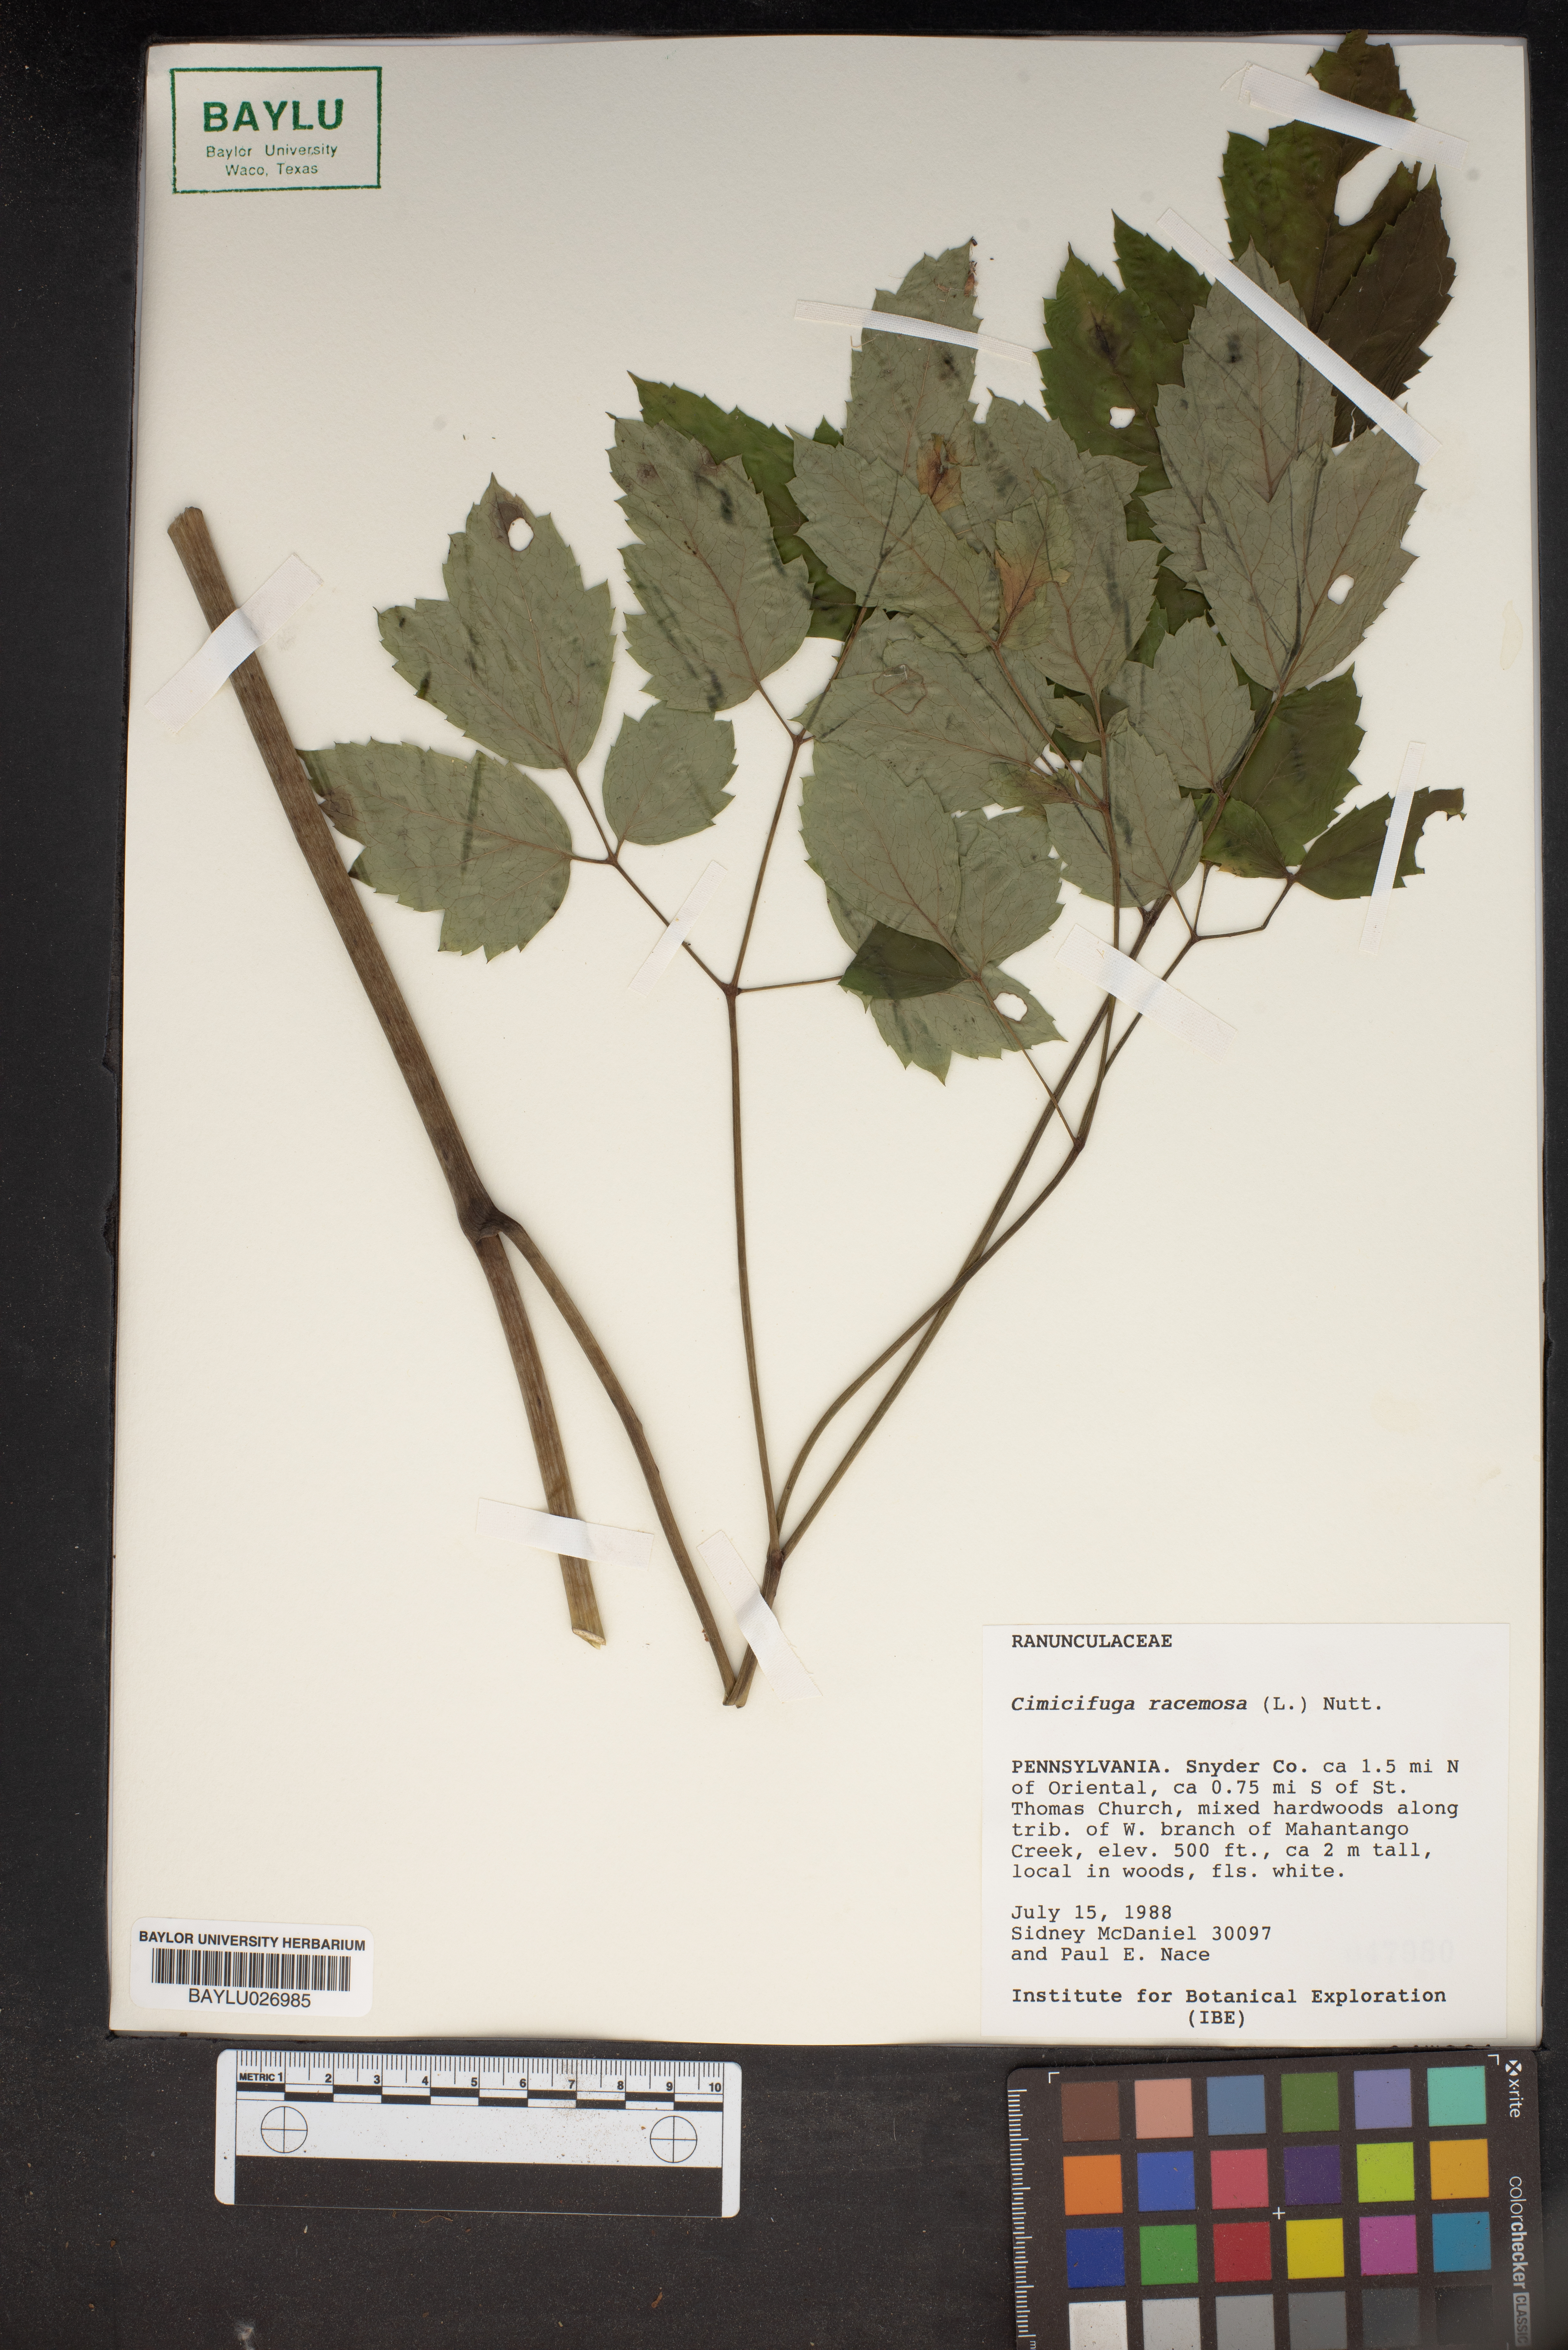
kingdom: Plantae
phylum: Tracheophyta
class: Magnoliopsida
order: Ranunculales
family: Ranunculaceae
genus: Actaea
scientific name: Actaea racemosa
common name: Black cohosh
